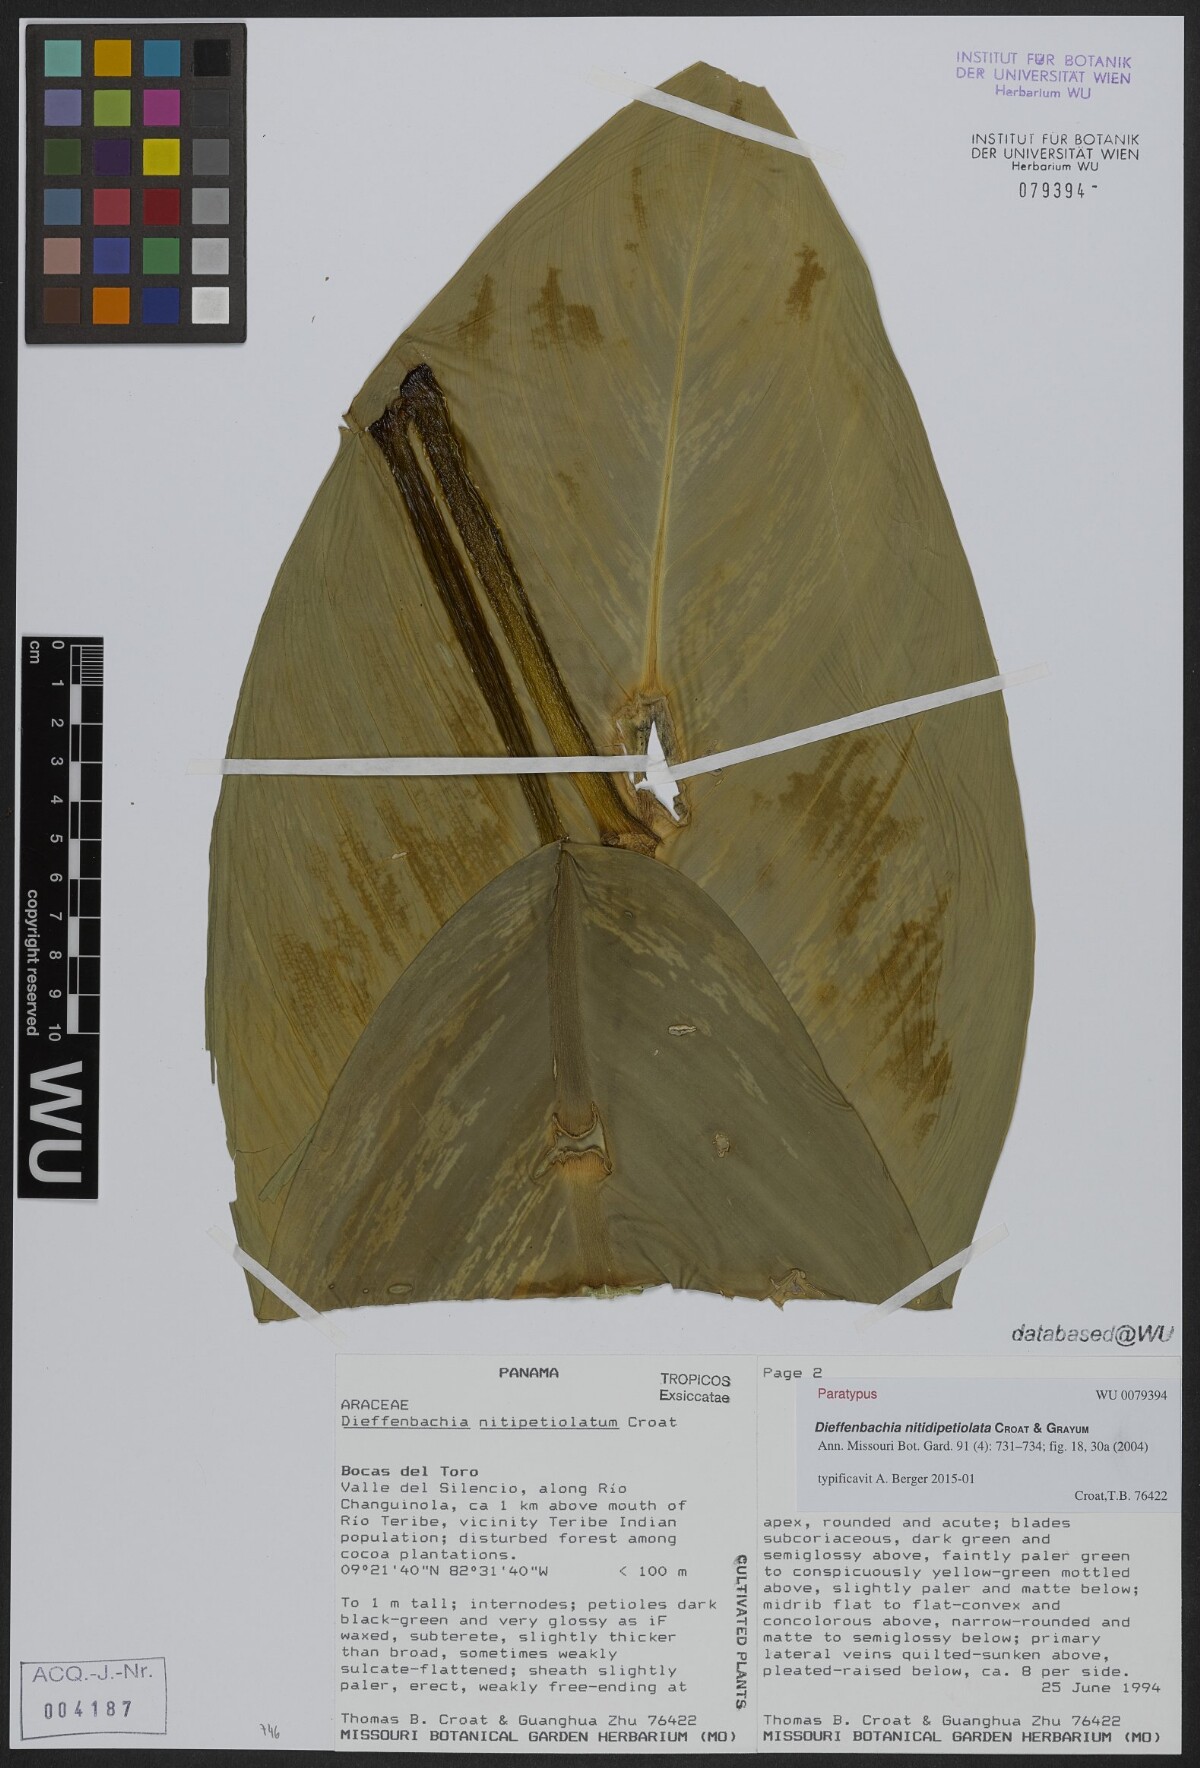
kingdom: Plantae
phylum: Tracheophyta
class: Liliopsida
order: Alismatales
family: Araceae
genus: Dieffenbachia
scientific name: Dieffenbachia nitidipetiolata
